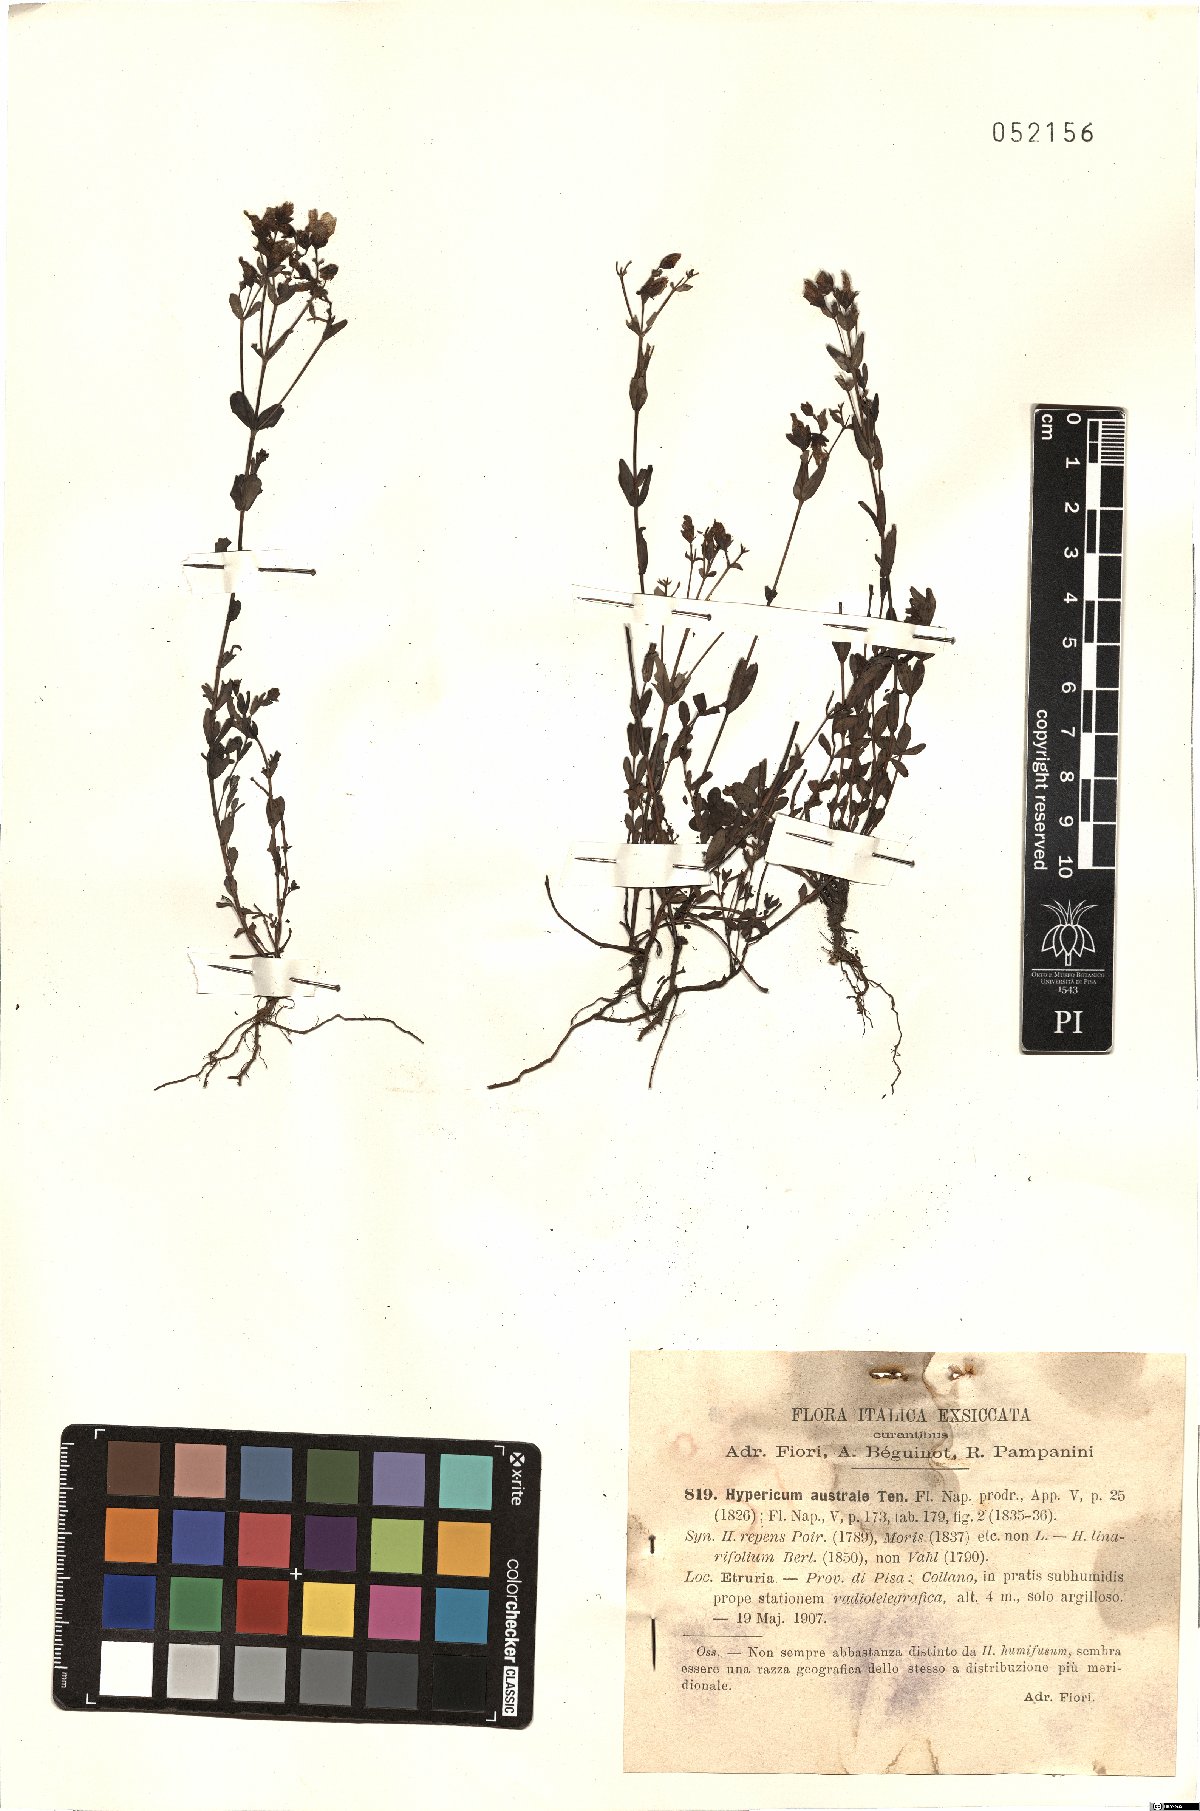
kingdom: Plantae
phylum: Tracheophyta
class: Magnoliopsida
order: Malpighiales
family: Hypericaceae
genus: Hypericum
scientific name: Hypericum australe
